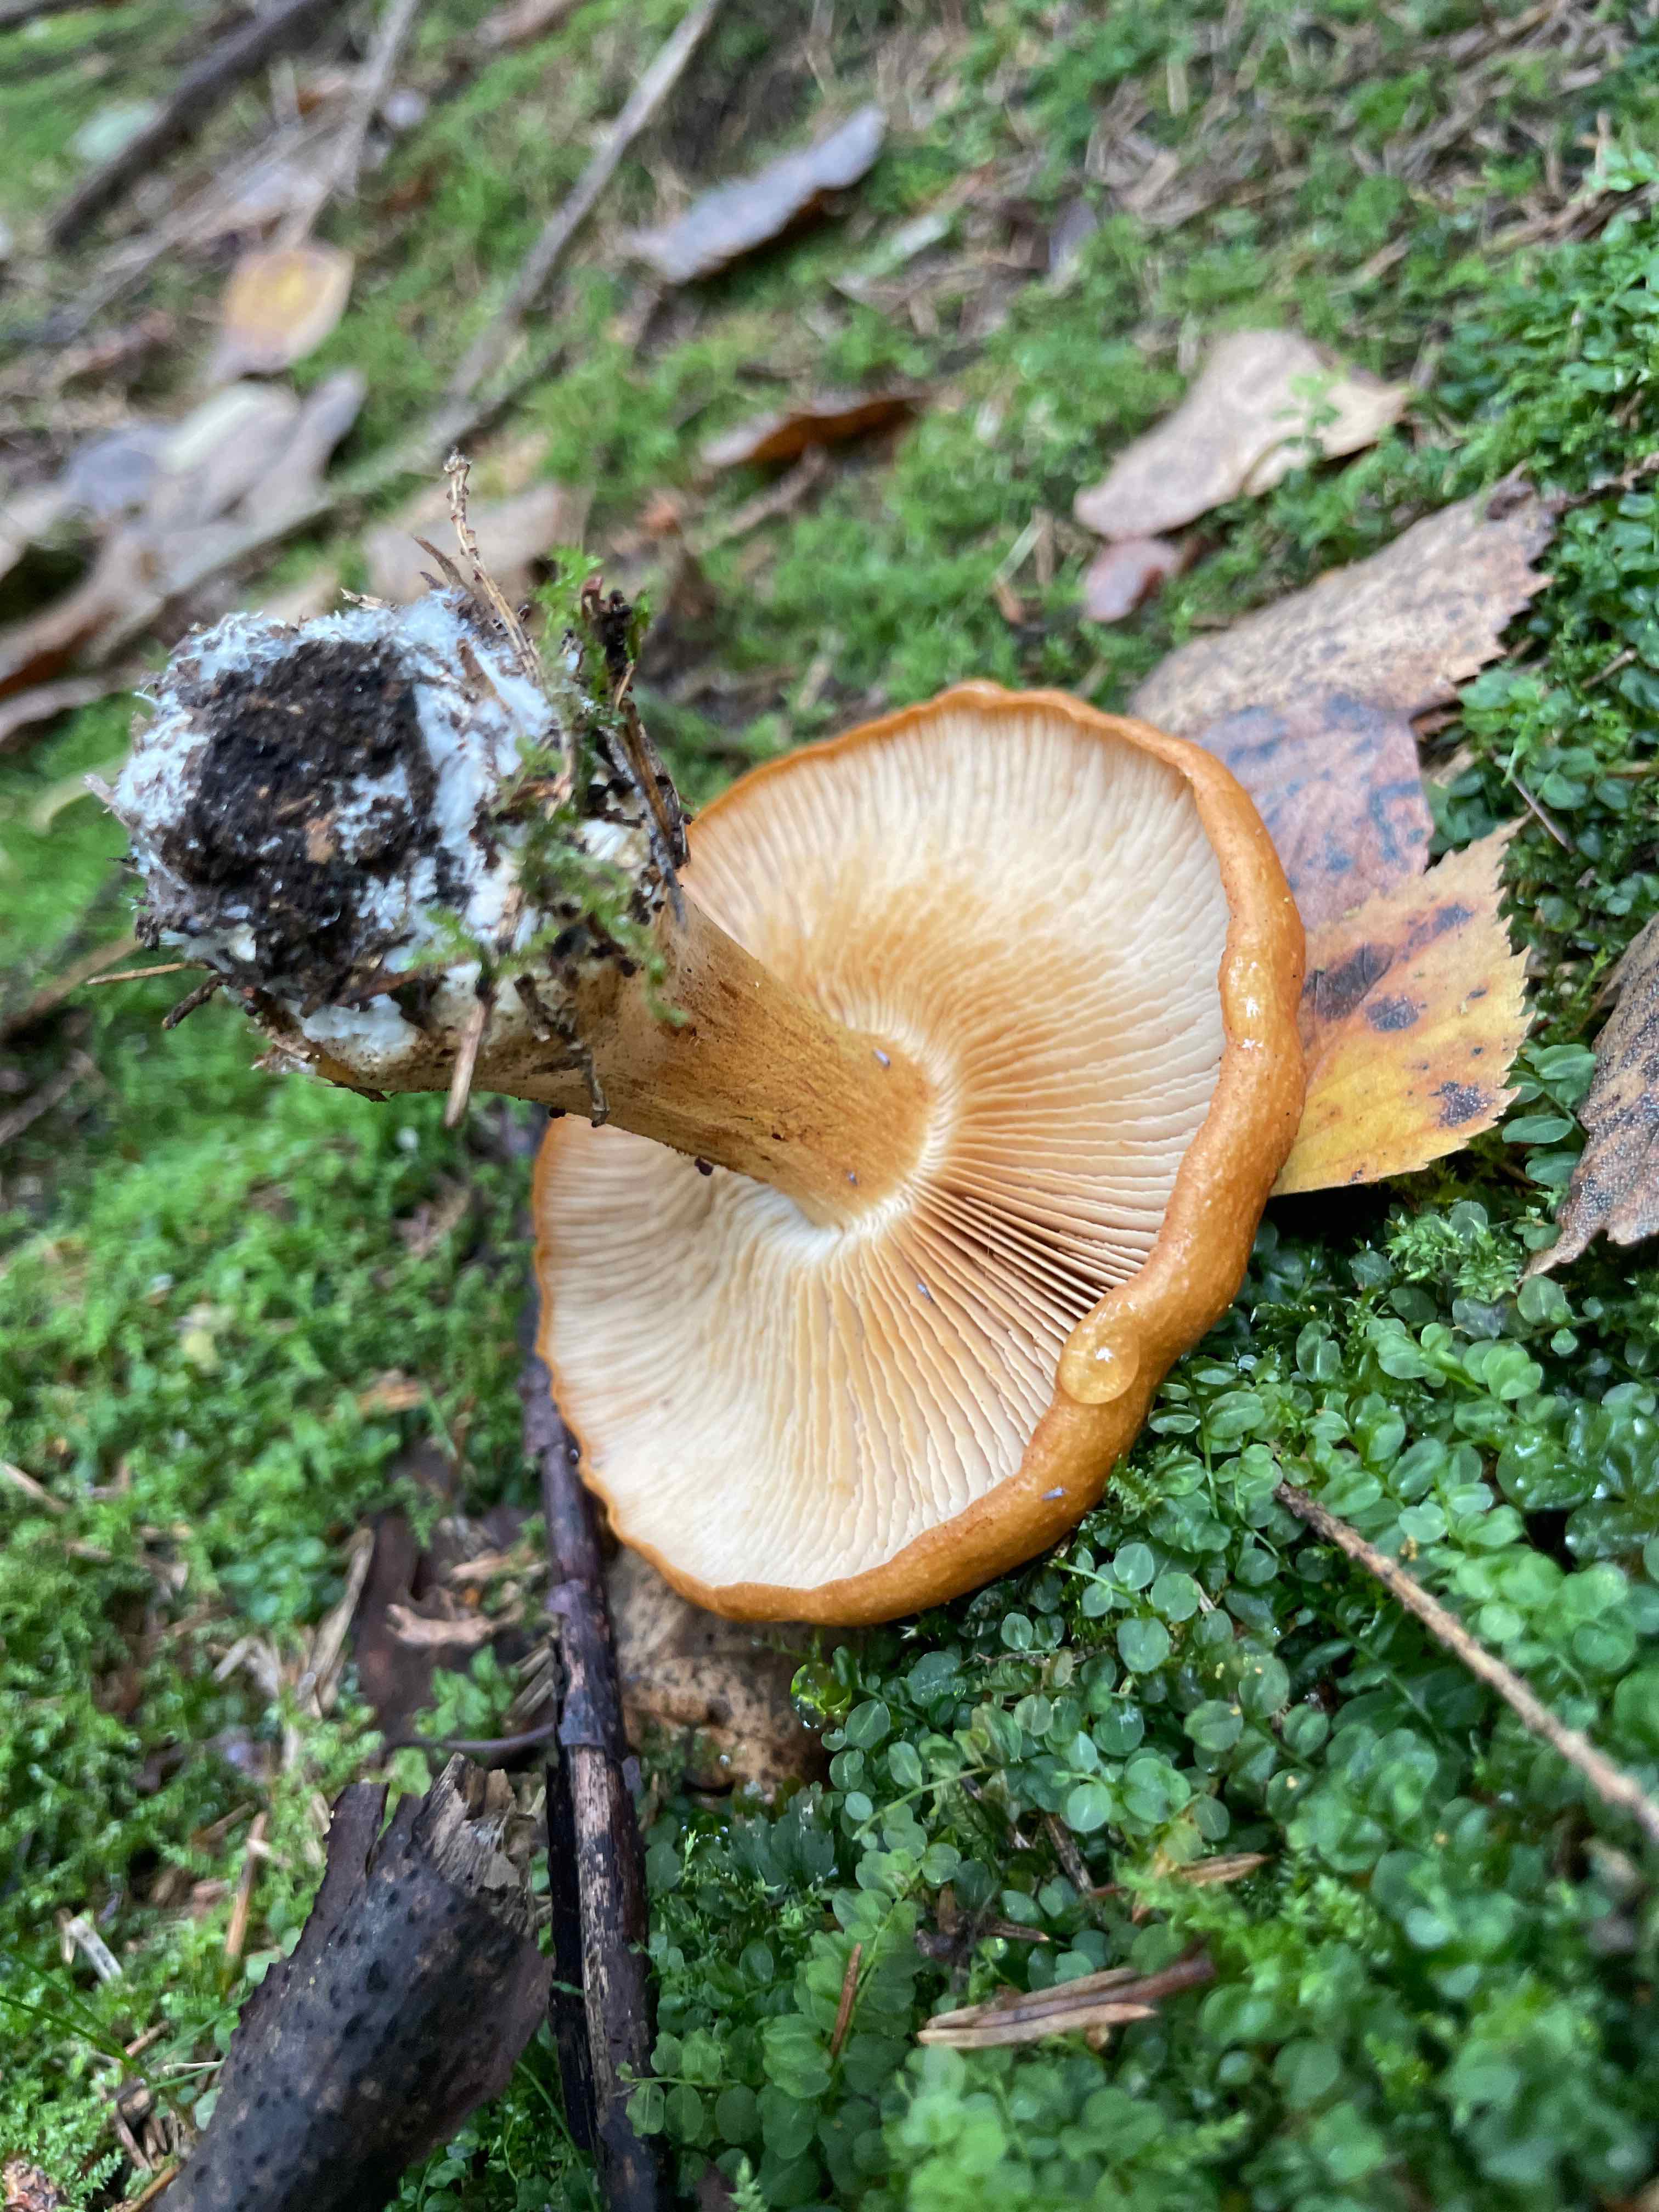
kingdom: Fungi
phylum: Basidiomycota
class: Agaricomycetes
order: Agaricales
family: Cortinariaceae
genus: Thaxterogaster
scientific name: Thaxterogaster multiformis
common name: honning-slørhat
